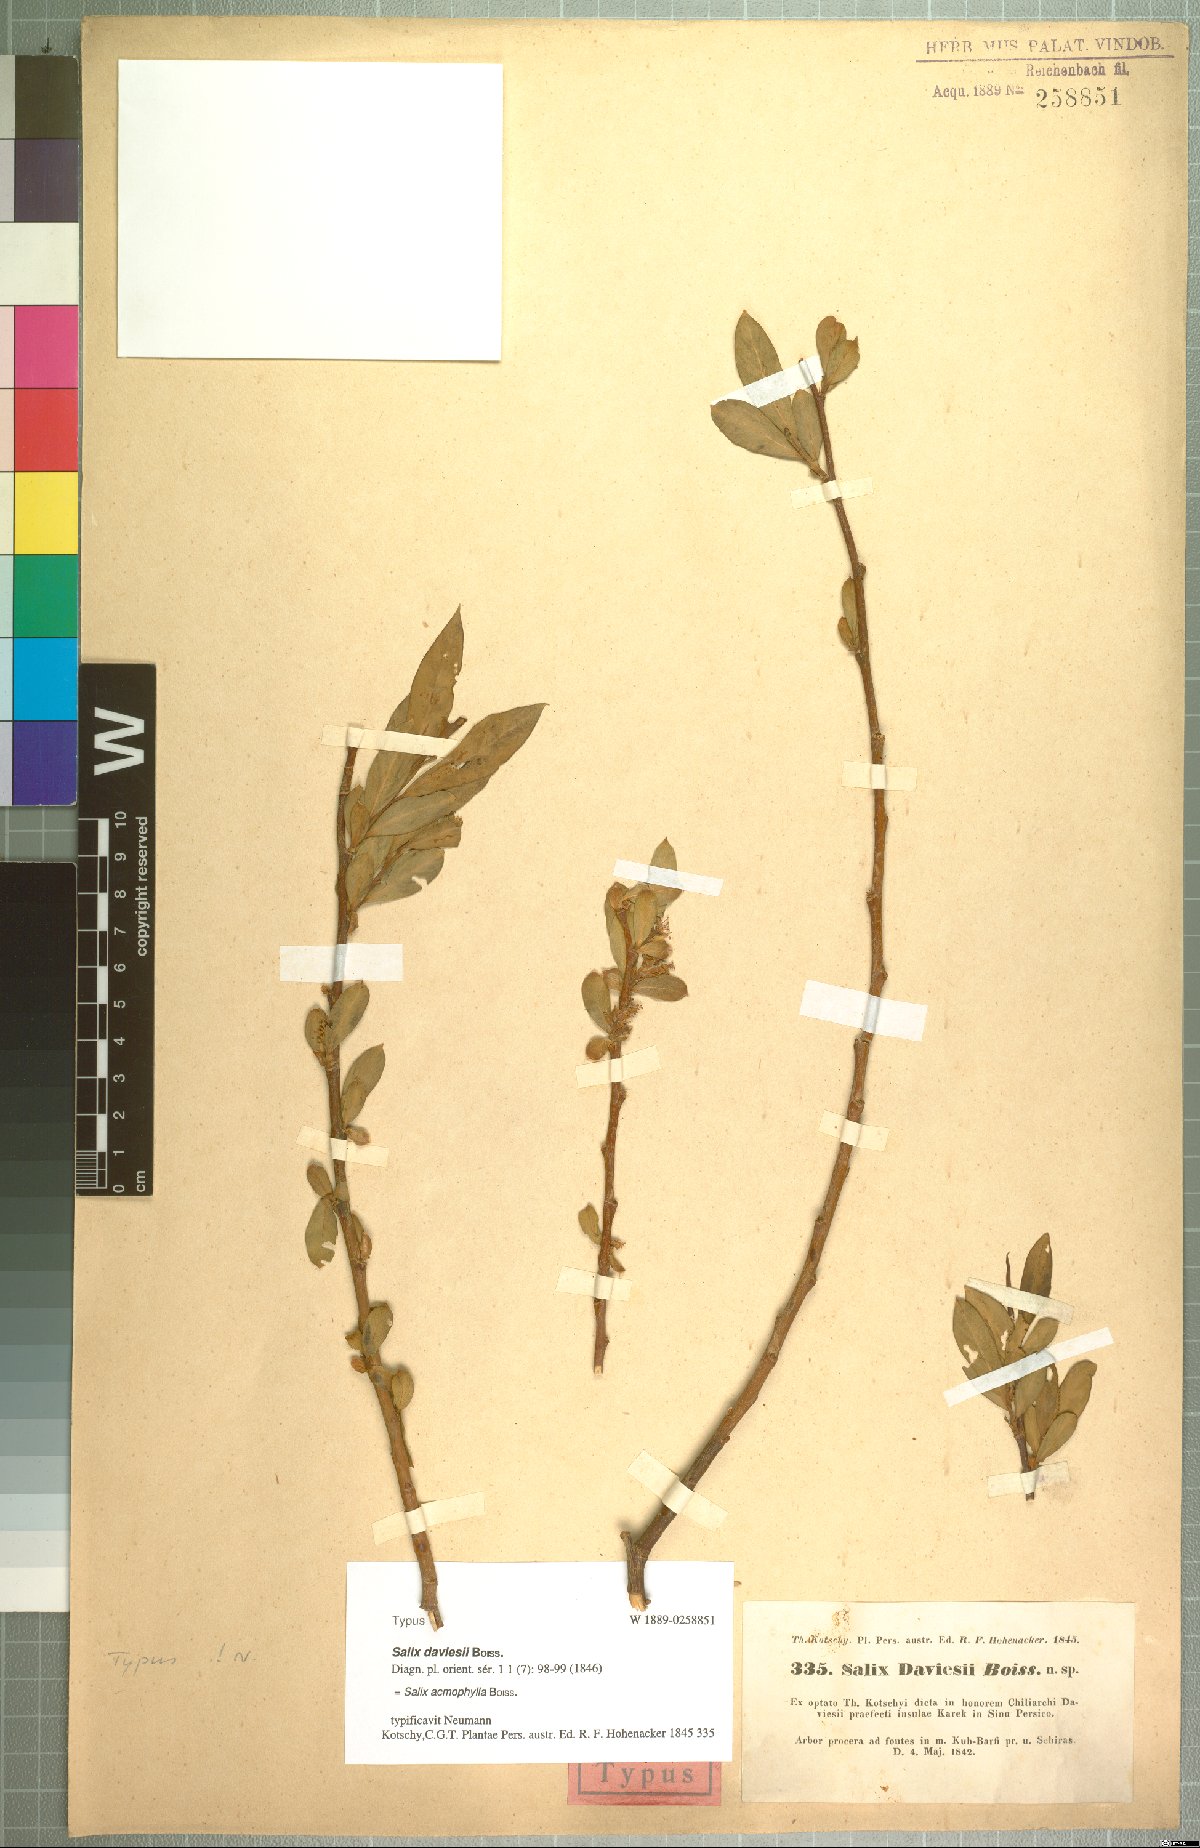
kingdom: Plantae
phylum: Tracheophyta
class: Magnoliopsida
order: Malpighiales
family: Salicaceae
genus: Salix
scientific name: Salix acmophylla
